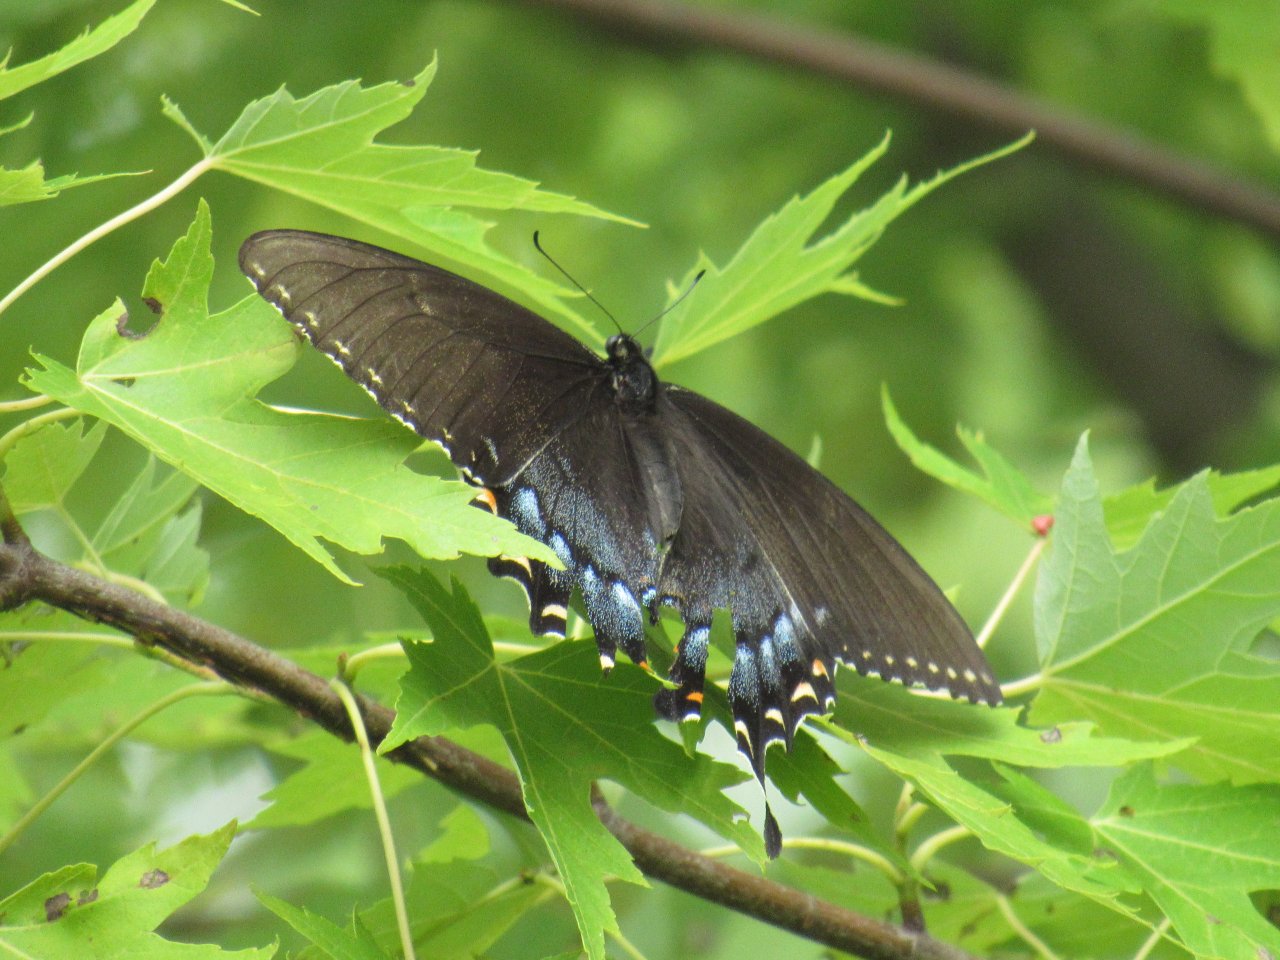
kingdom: Animalia
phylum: Arthropoda
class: Insecta
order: Lepidoptera
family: Papilionidae
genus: Pterourus
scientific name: Pterourus glaucus
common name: Eastern Tiger Swallowtail
